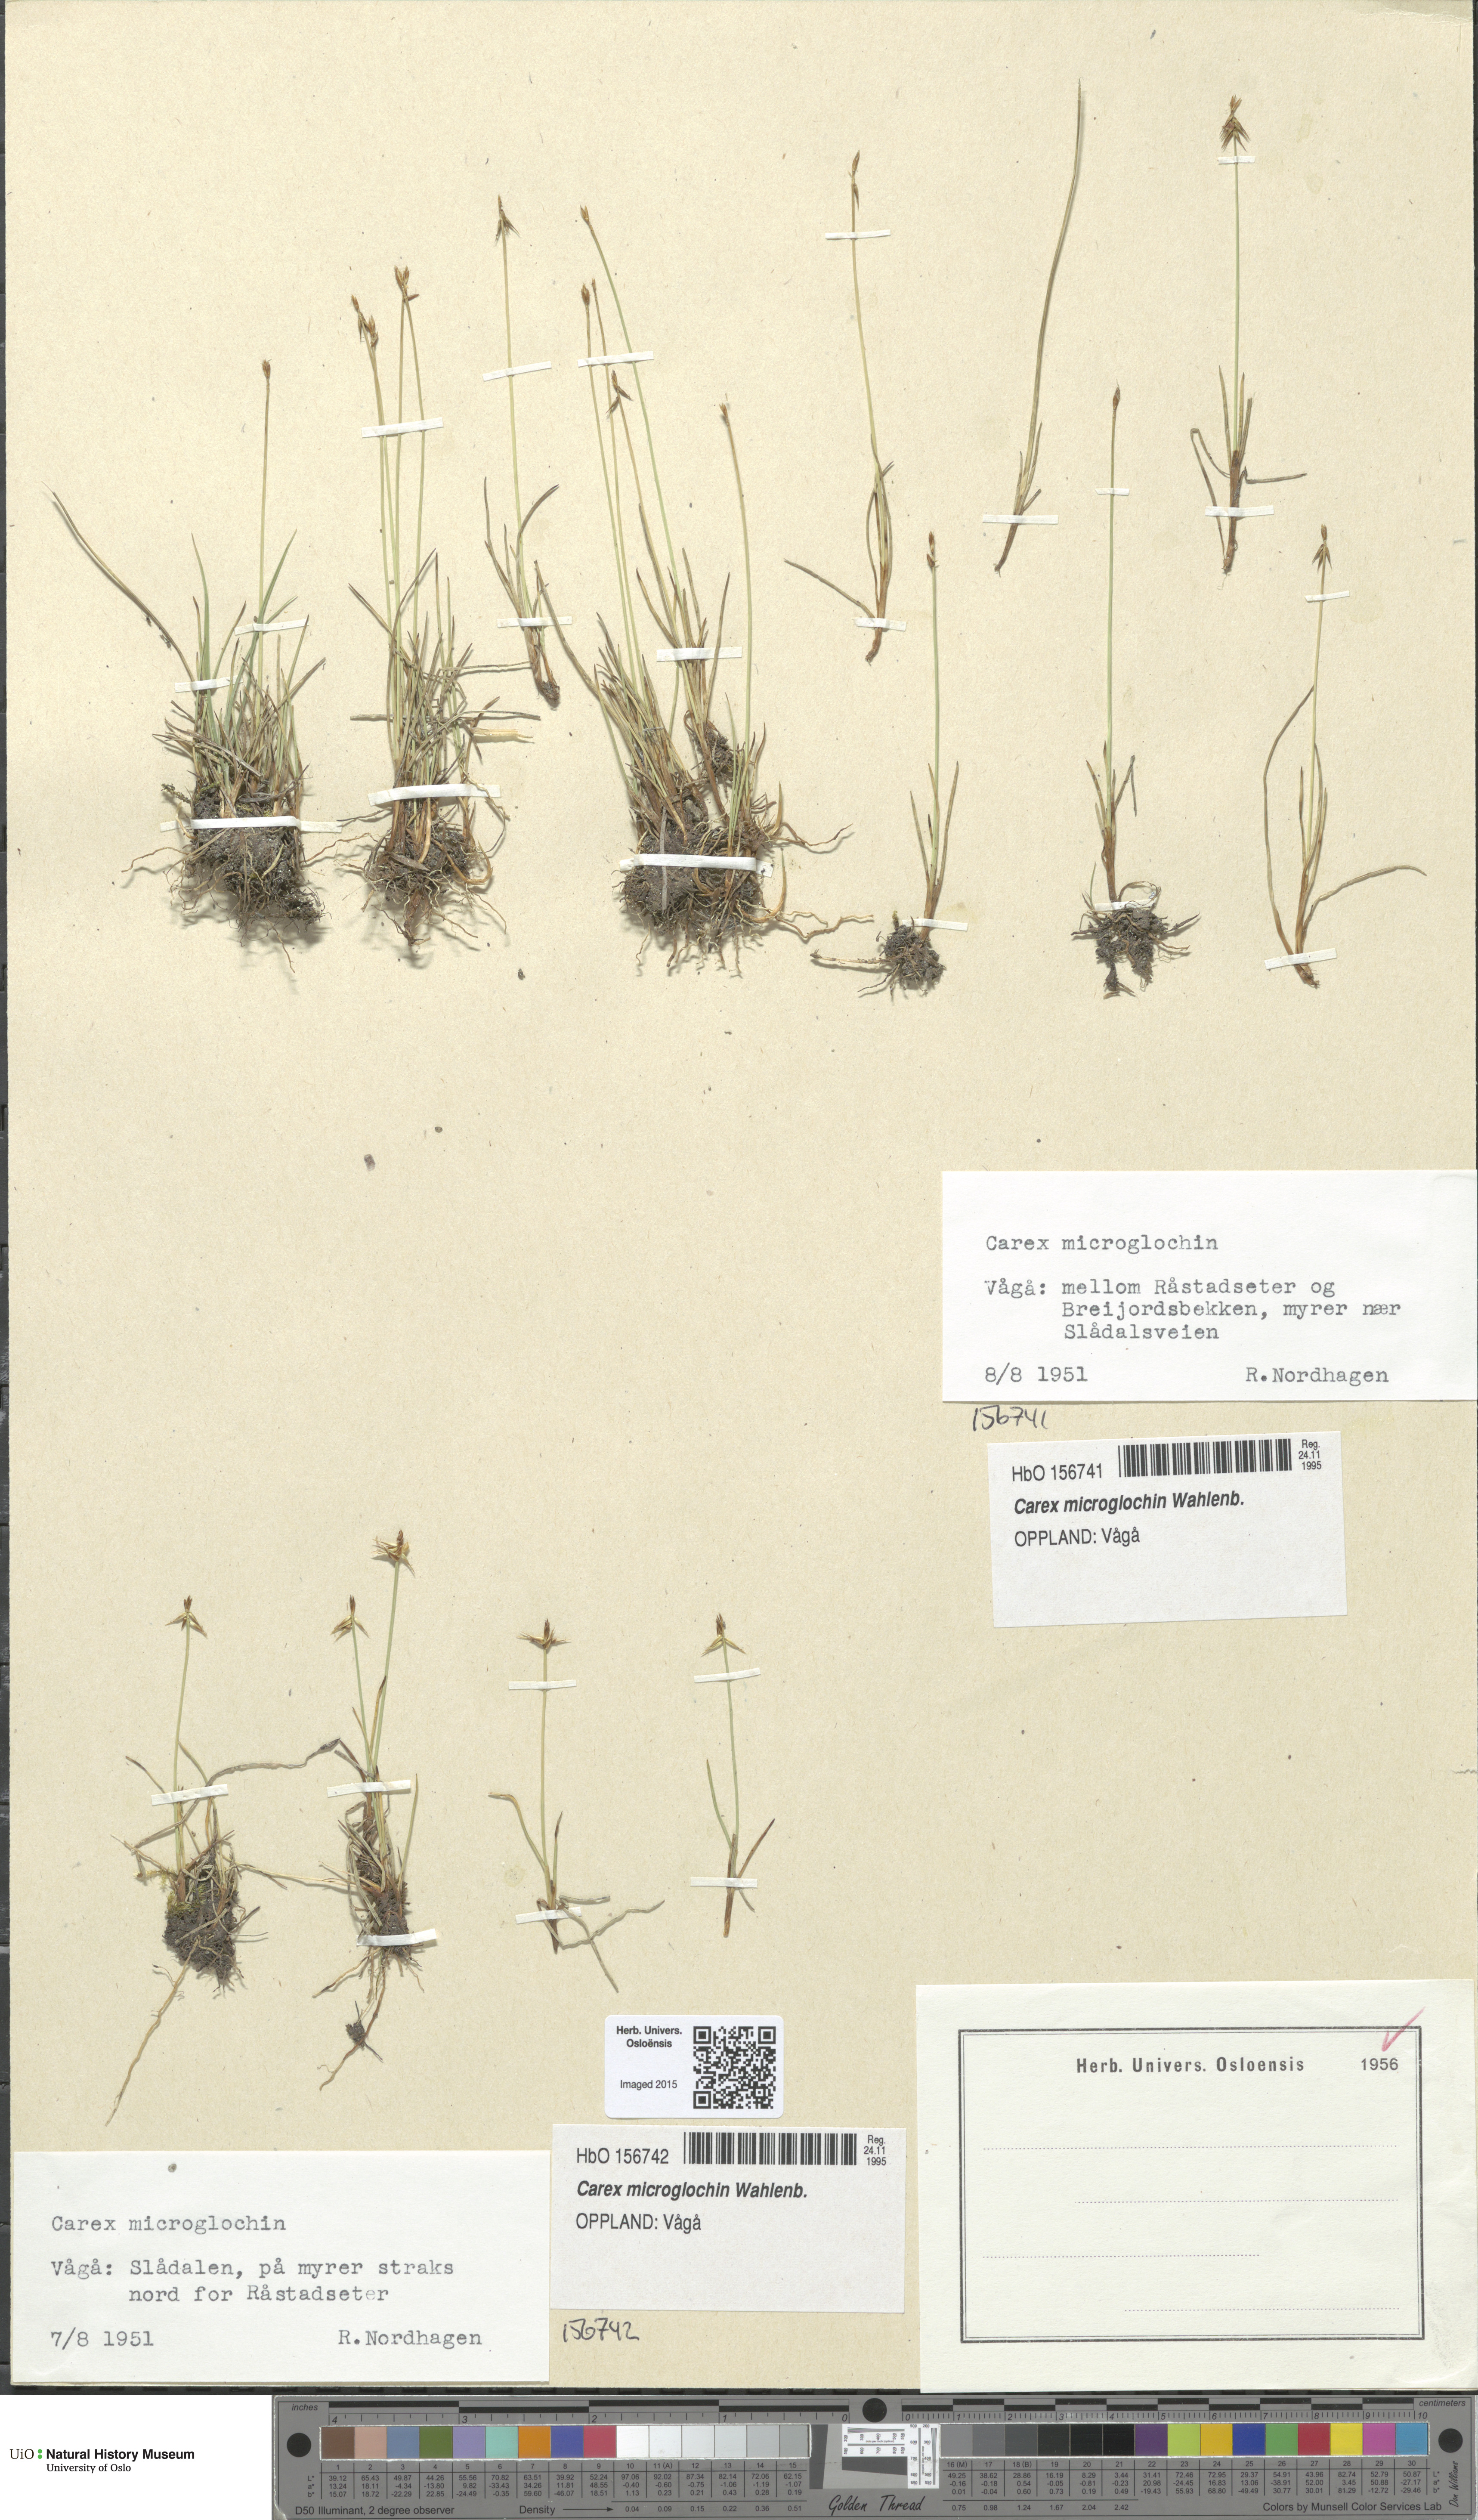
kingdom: Plantae
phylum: Tracheophyta
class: Liliopsida
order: Poales
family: Cyperaceae
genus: Carex
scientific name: Carex microglochin
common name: Bristle sedge
